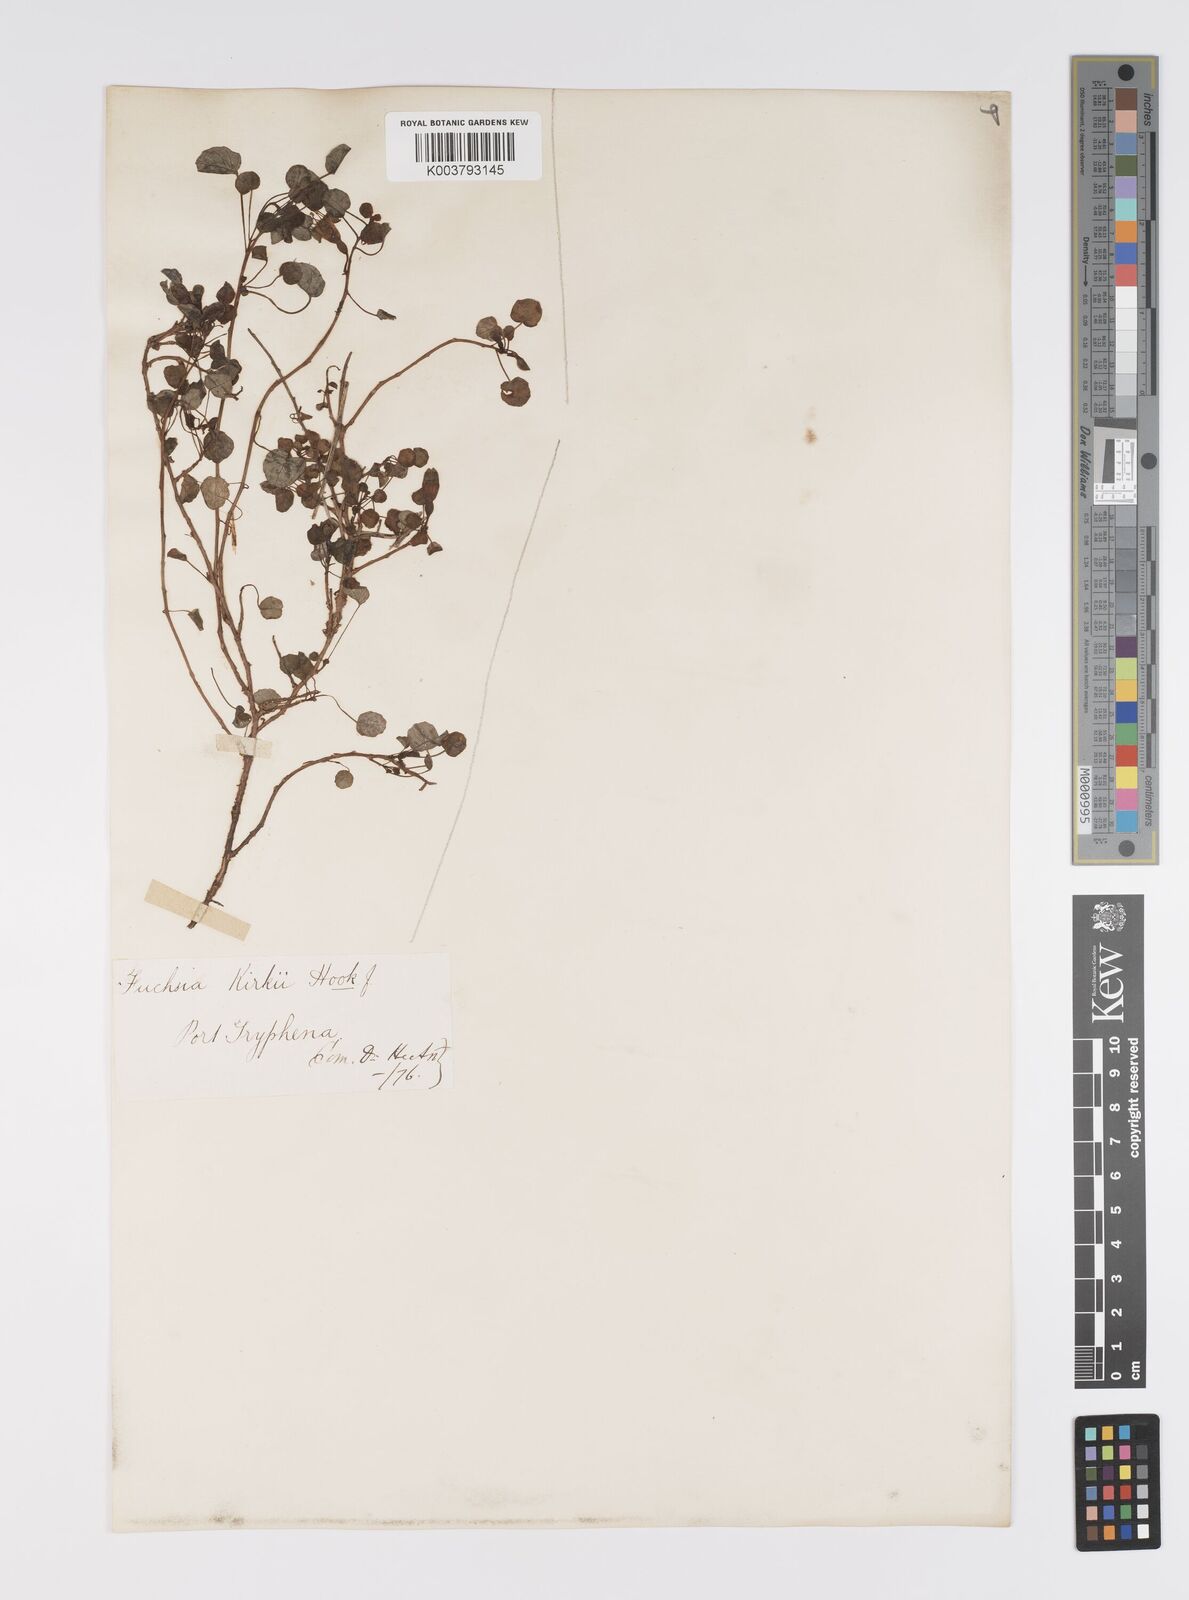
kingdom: Plantae
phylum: Tracheophyta
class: Magnoliopsida
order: Myrtales
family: Onagraceae
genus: Fuchsia
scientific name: Fuchsia procumbens
